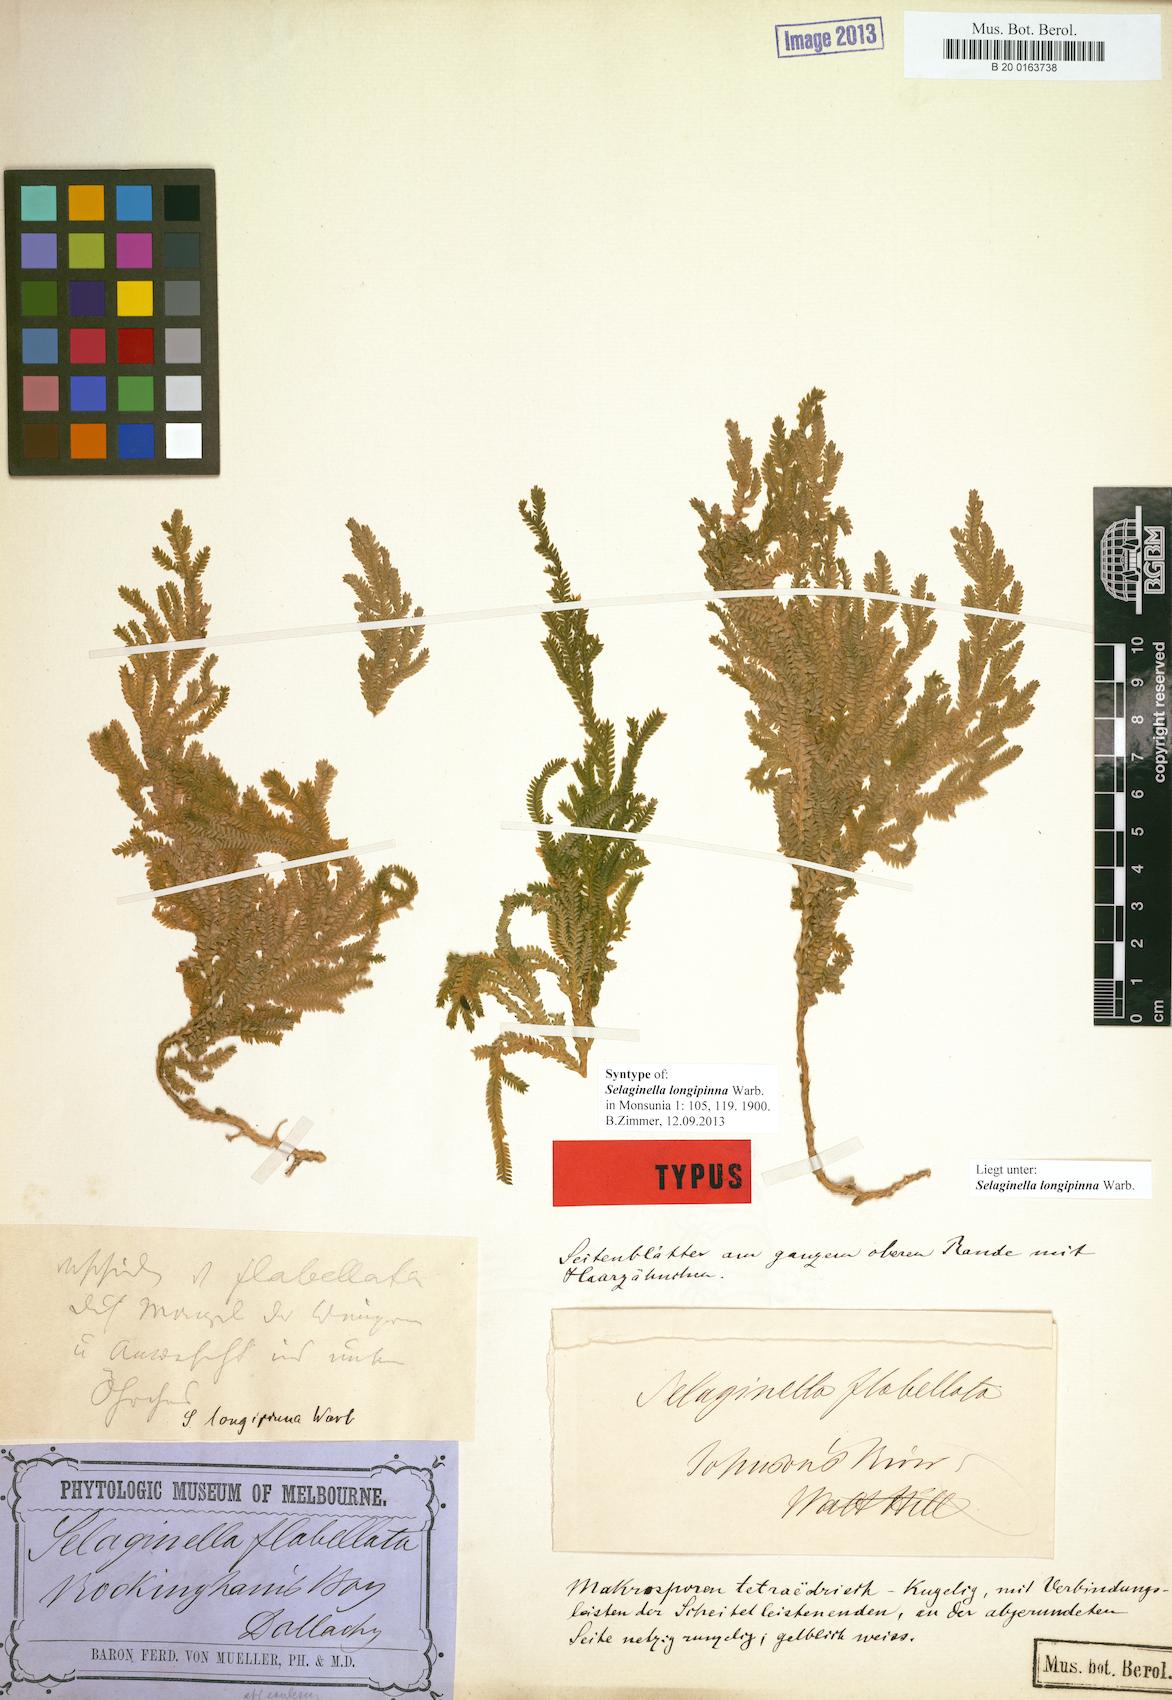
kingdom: Plantae
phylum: Tracheophyta
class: Lycopodiopsida
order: Selaginellales
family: Selaginellaceae
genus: Selaginella
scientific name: Selaginella longipinna
